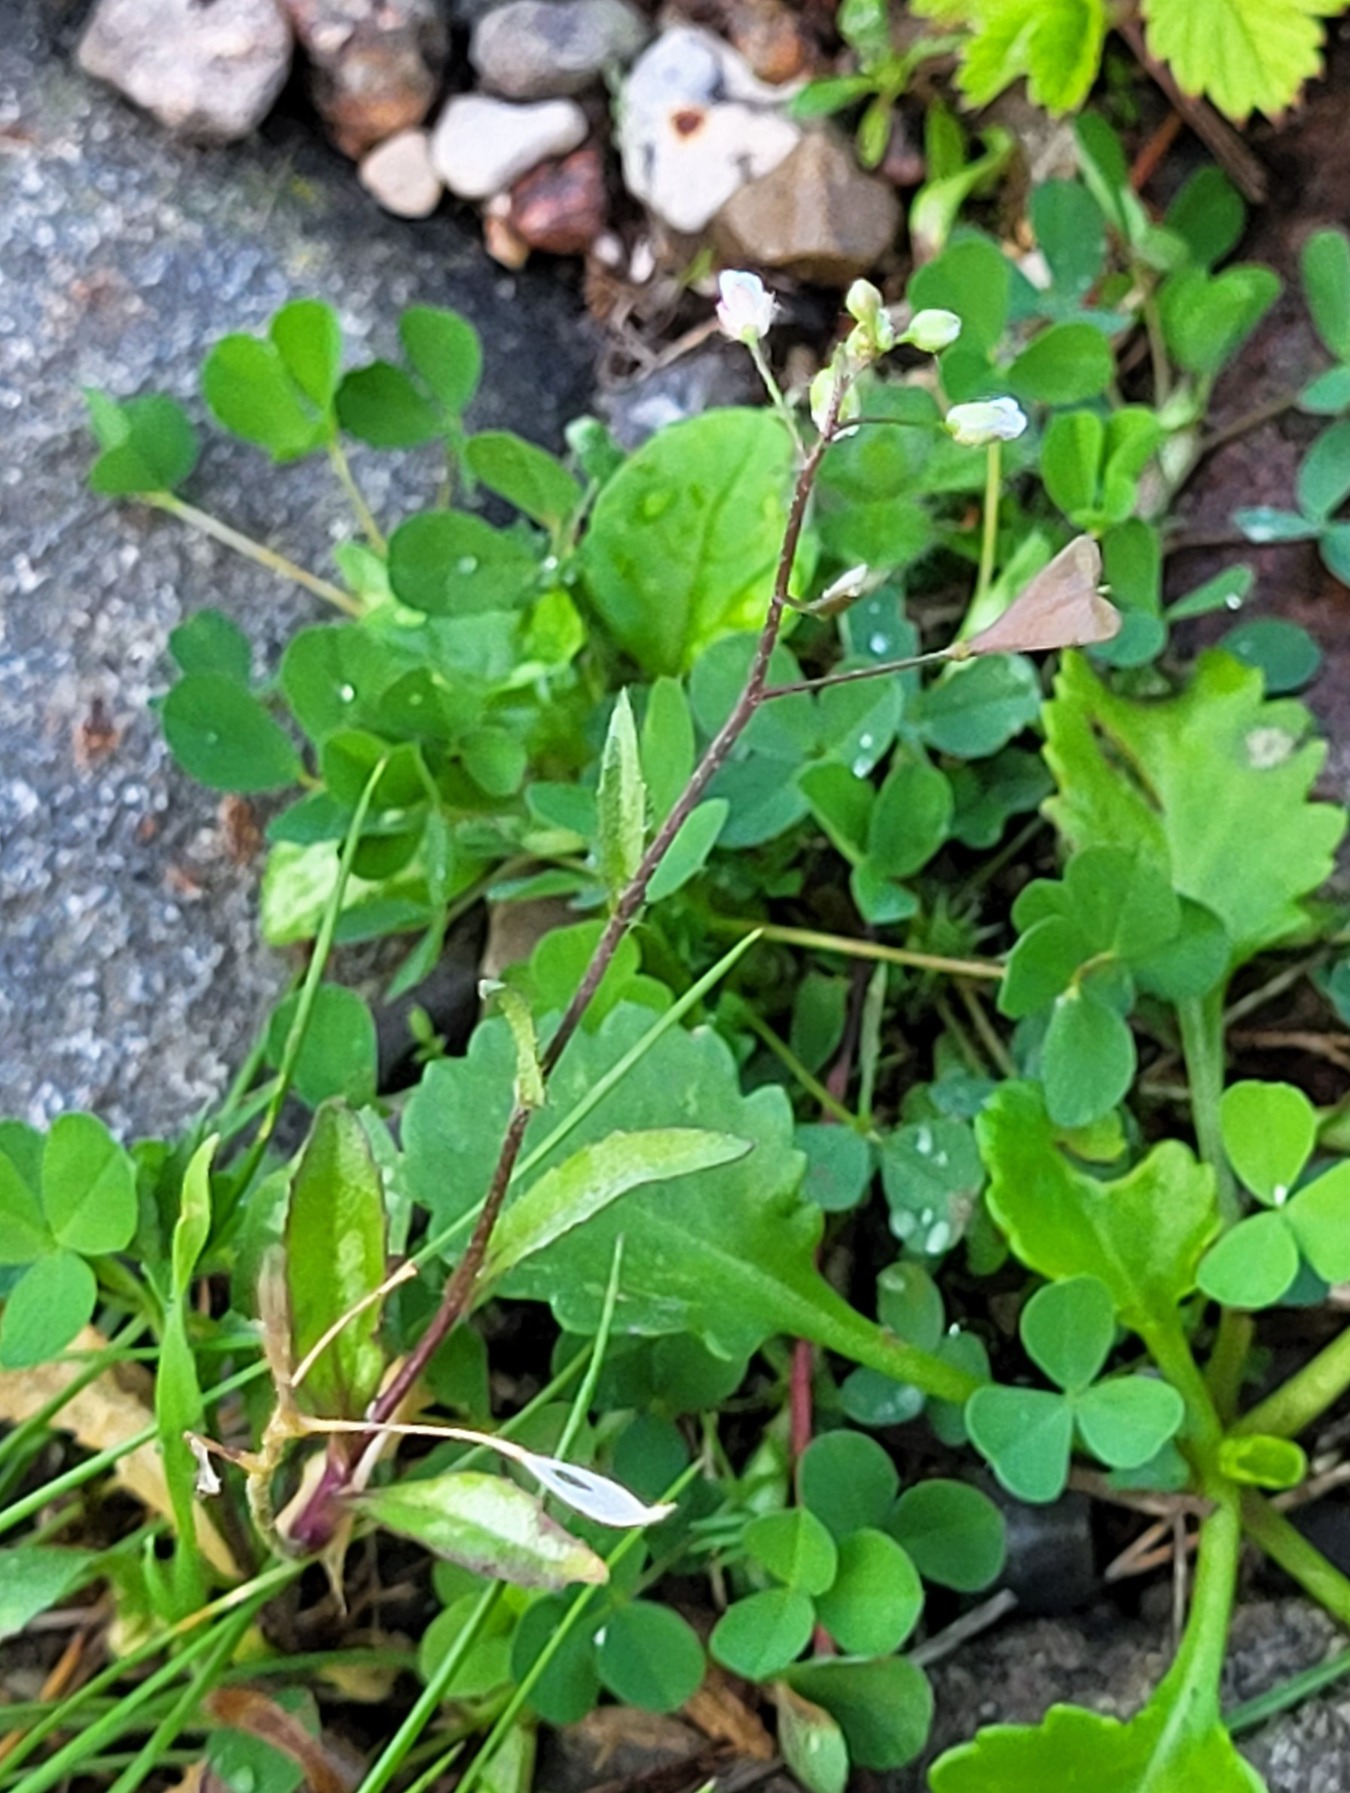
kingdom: Plantae
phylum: Tracheophyta
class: Magnoliopsida
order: Brassicales
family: Brassicaceae
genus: Capsella
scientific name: Capsella bursa-pastoris
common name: Hyrdetaske
